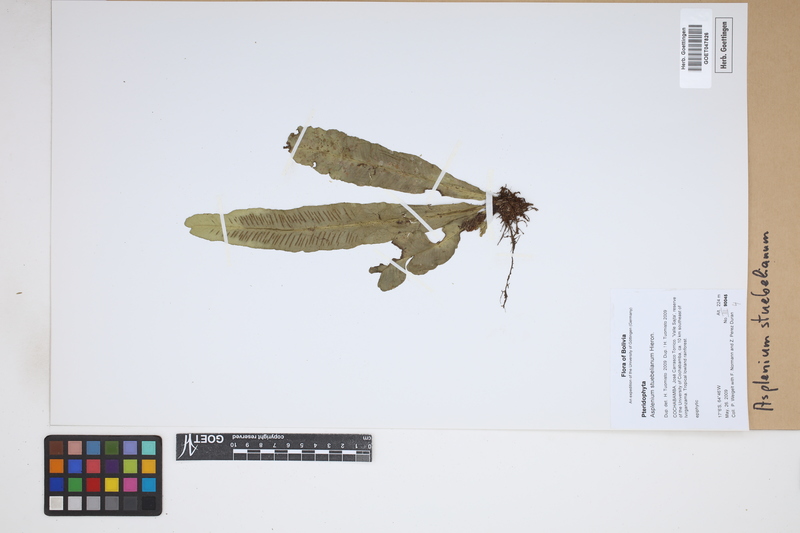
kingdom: Plantae
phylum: Tracheophyta
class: Polypodiopsida
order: Polypodiales
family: Aspleniaceae
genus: Asplenium
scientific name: Asplenium stuebelianum
